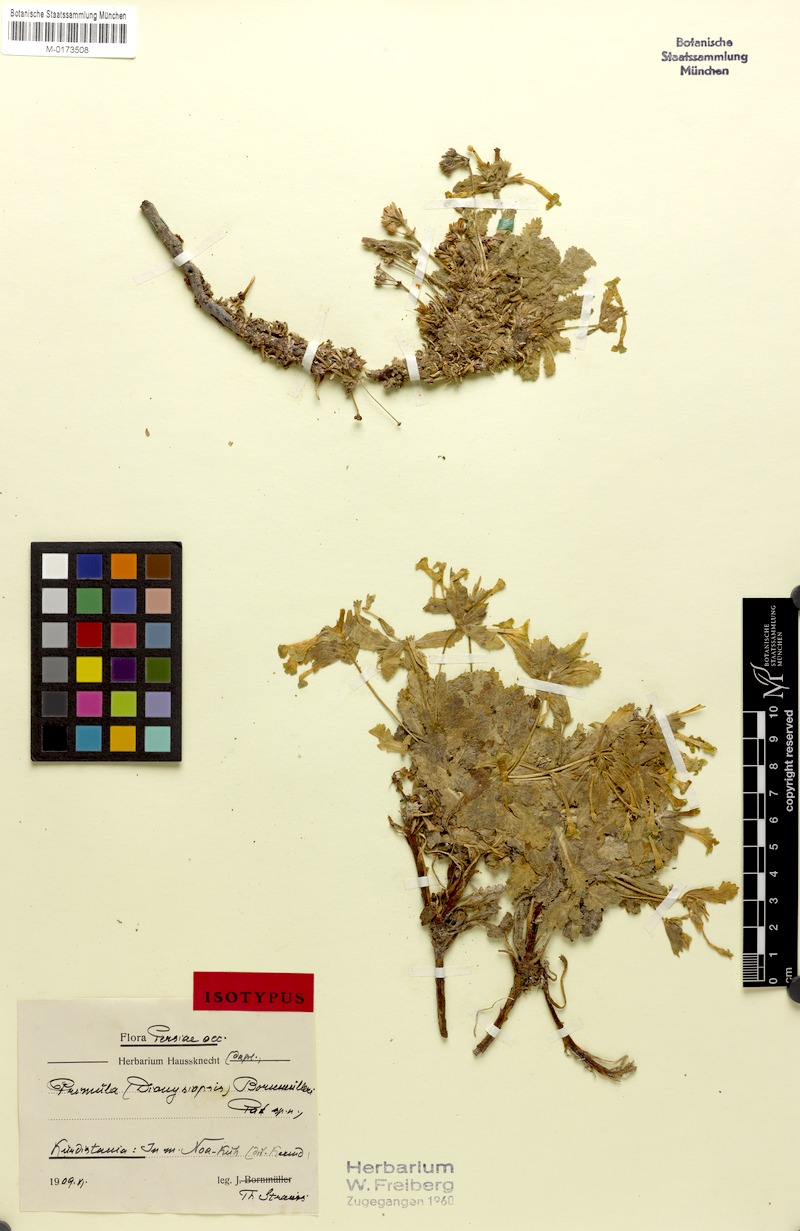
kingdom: Plantae
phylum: Tracheophyta
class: Magnoliopsida
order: Ericales
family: Primulaceae
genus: Dionysia
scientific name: Dionysia bornmuelleri
